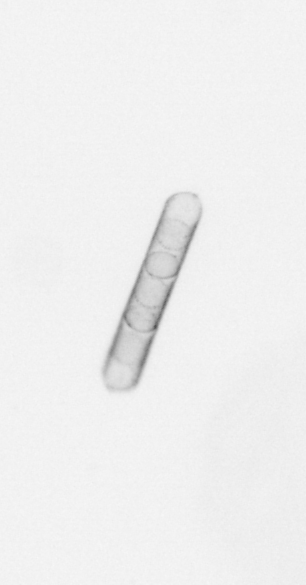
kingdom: Chromista
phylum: Ochrophyta
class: Bacillariophyceae
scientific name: Bacillariophyceae
